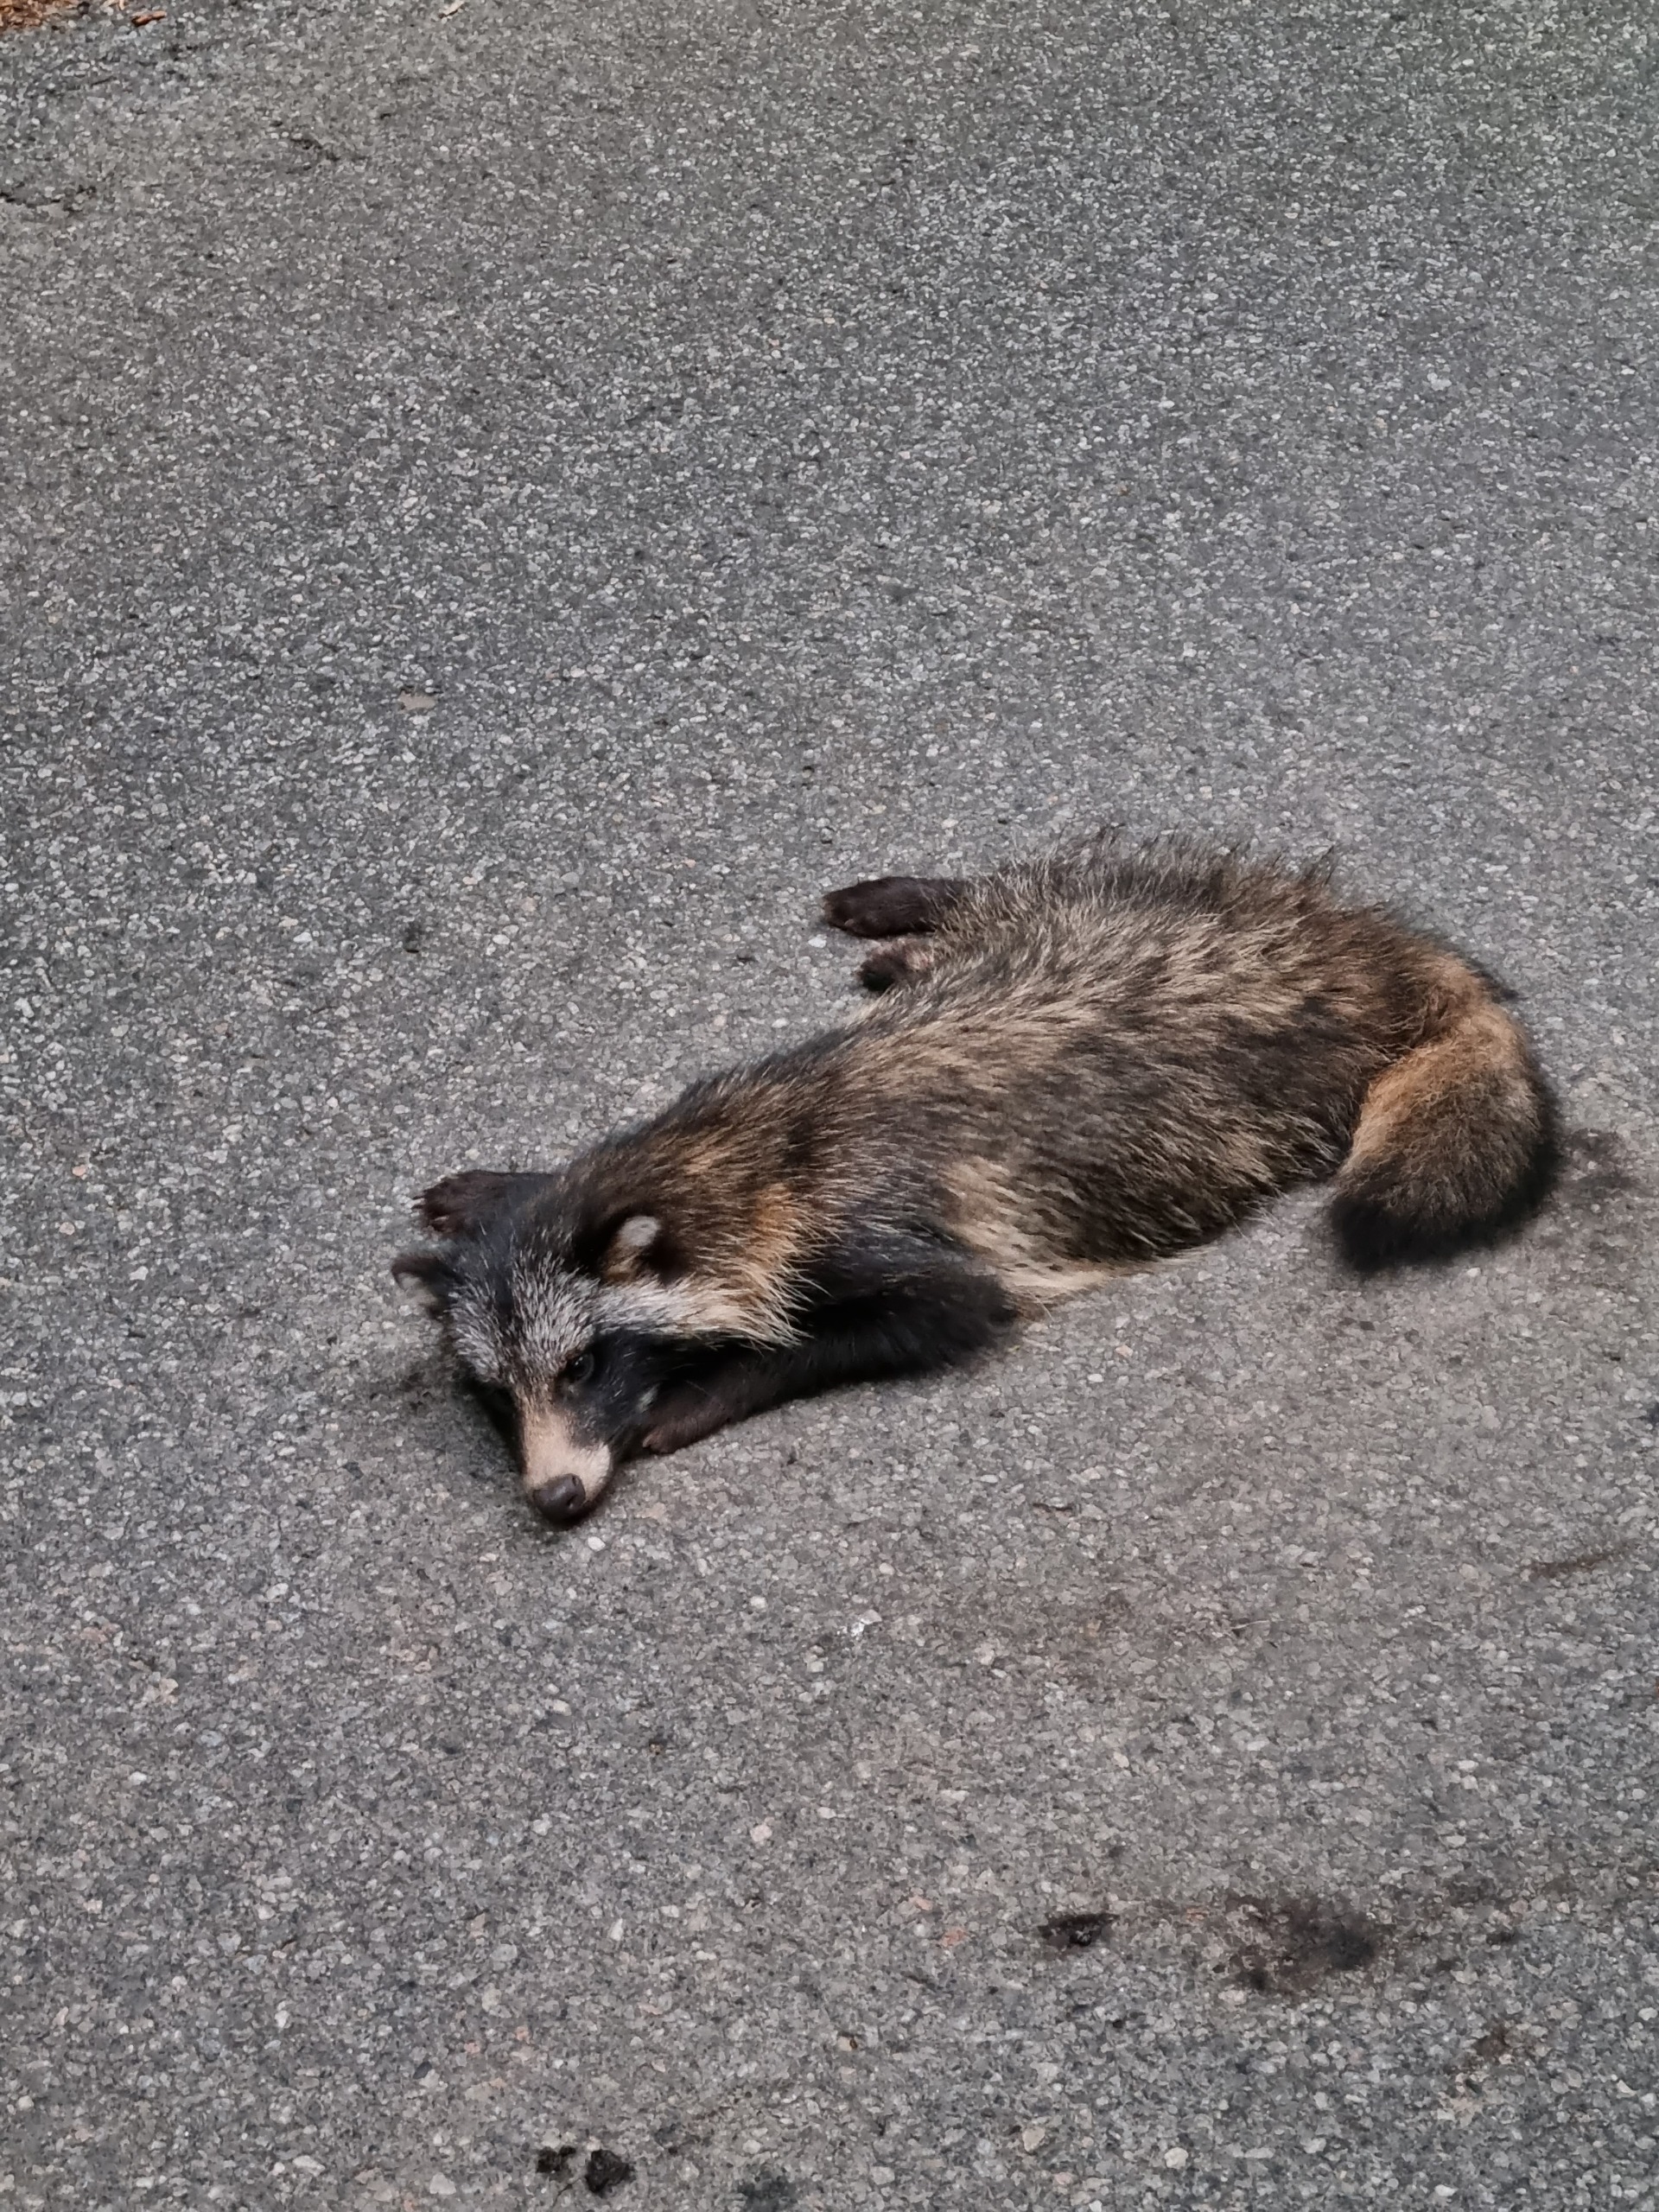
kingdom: Animalia
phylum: Chordata
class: Mammalia
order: Carnivora
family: Canidae
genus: Nyctereutes
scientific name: Nyctereutes procyonoides
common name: Mårhund
